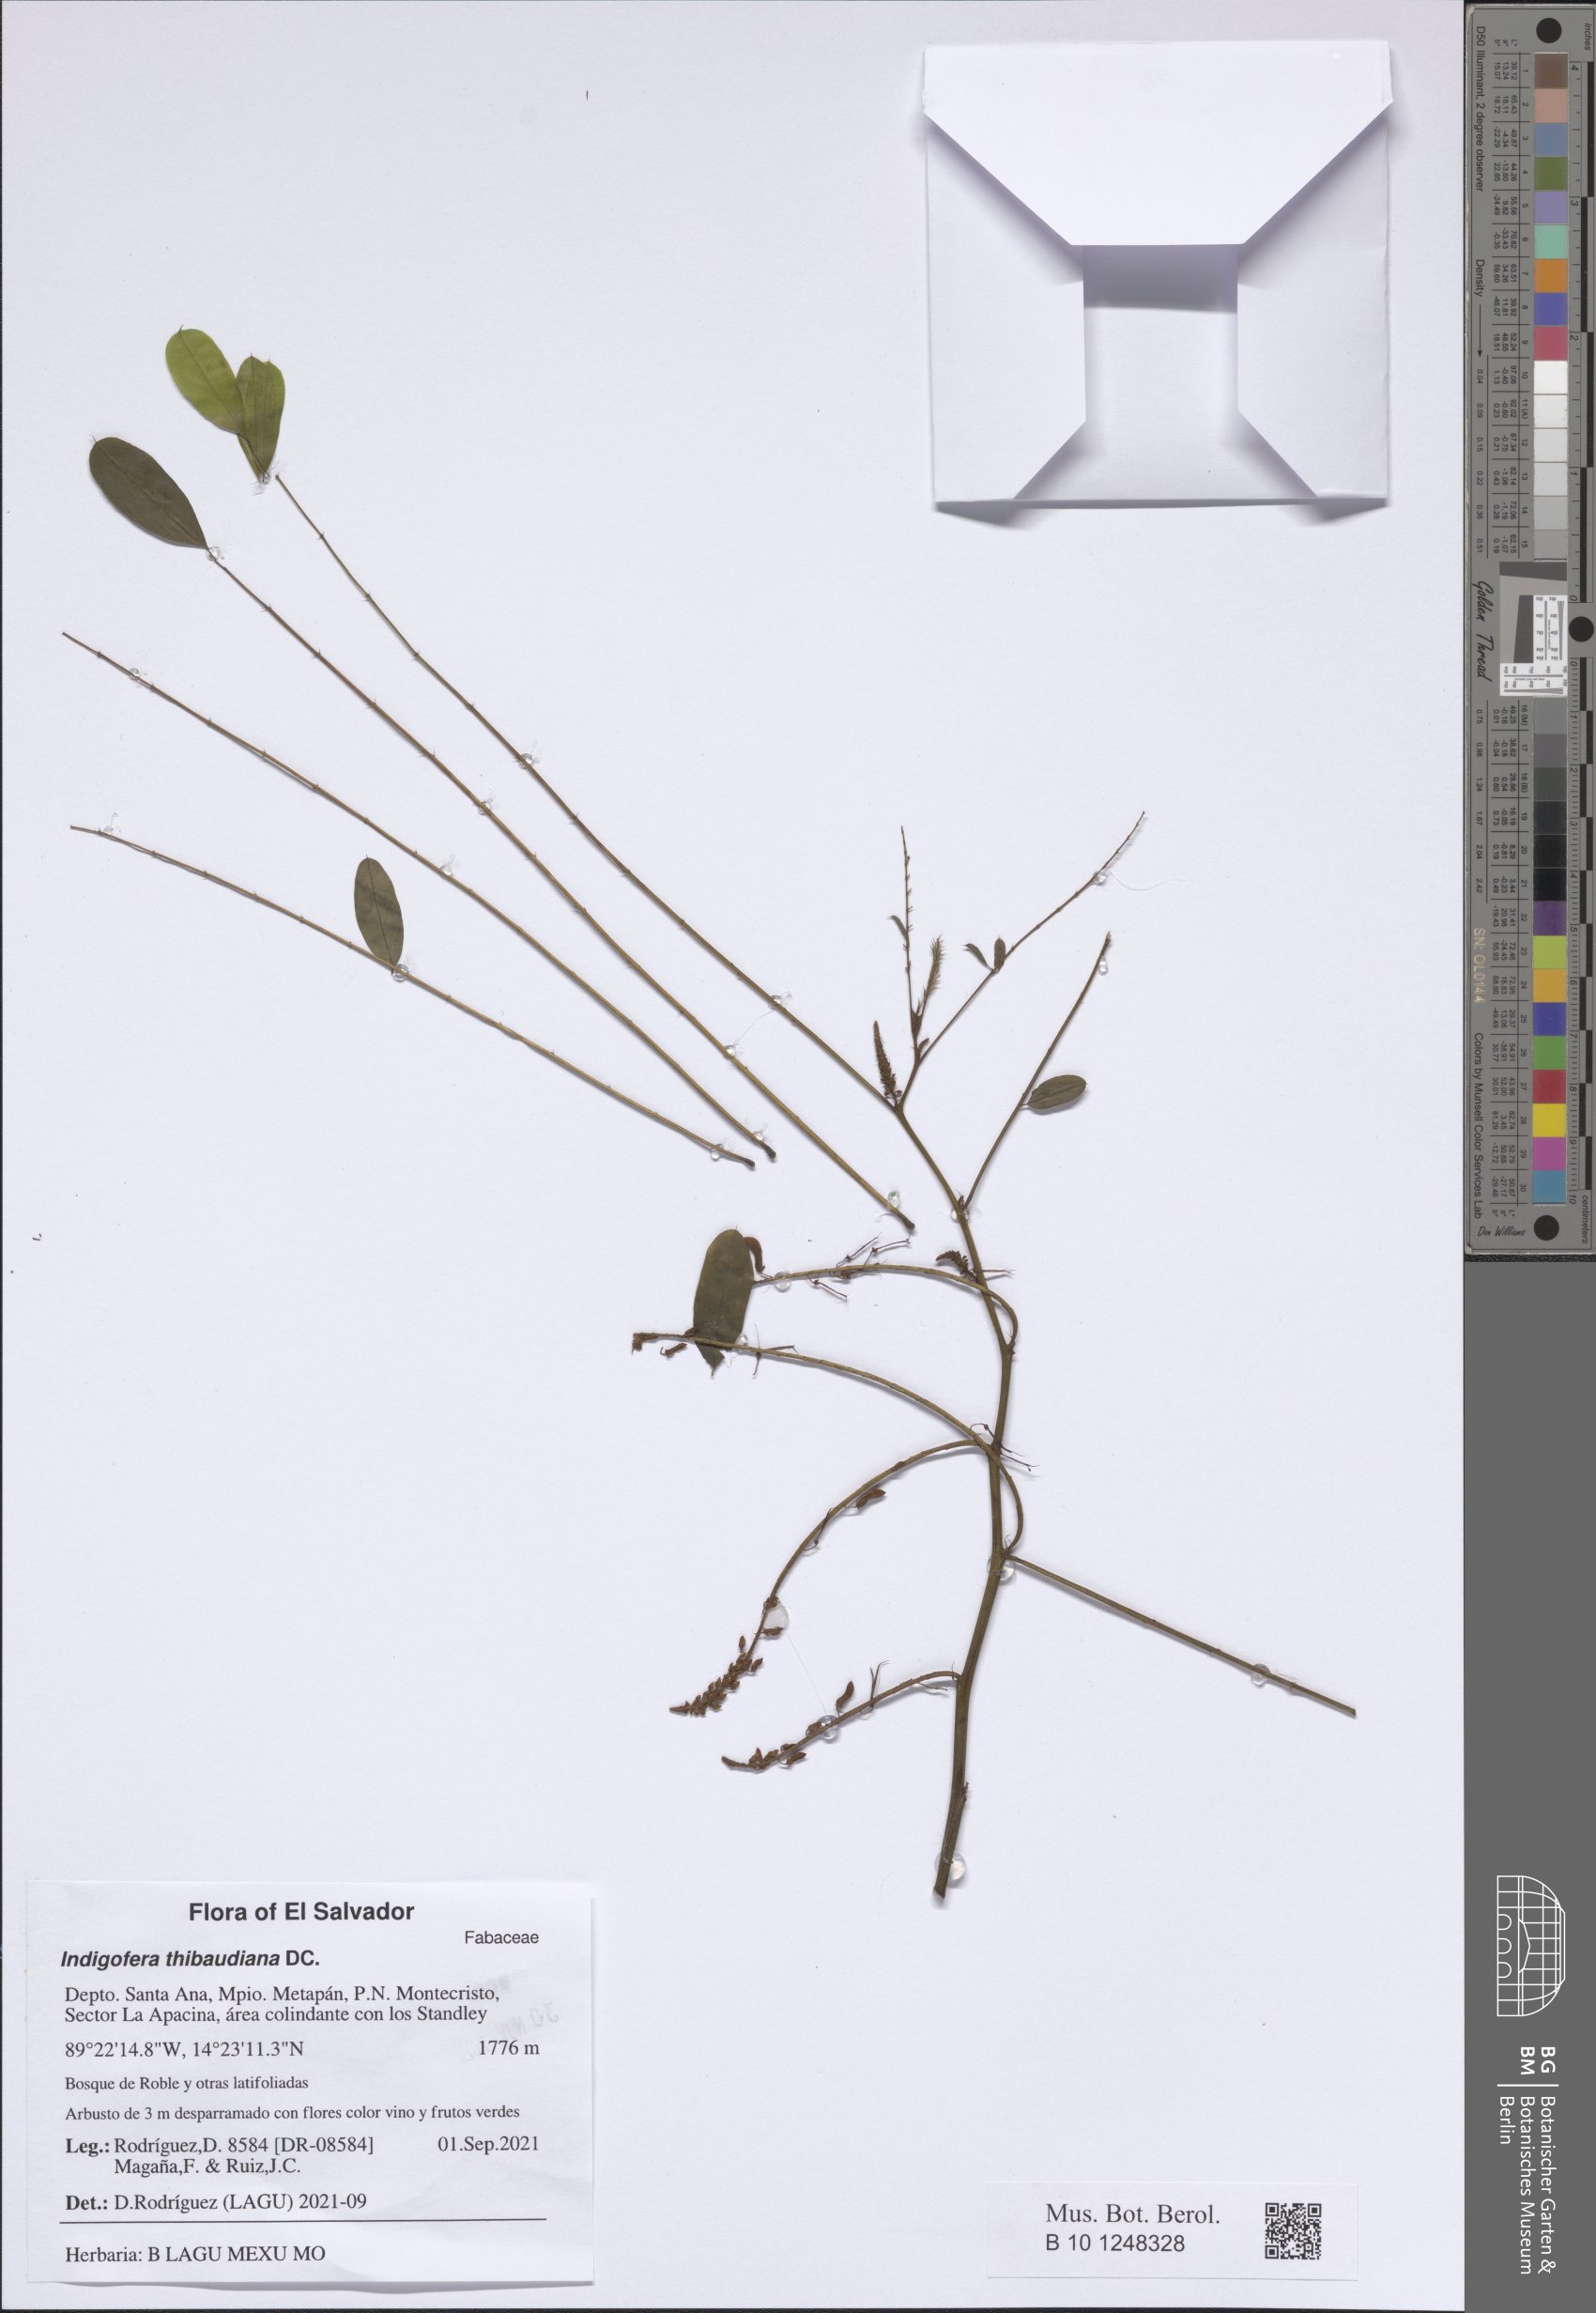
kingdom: Plantae
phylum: Tracheophyta
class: Magnoliopsida
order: Fabales
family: Fabaceae
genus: Indigofera
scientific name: Indigofera suffruticosa
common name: Anil de pasto
